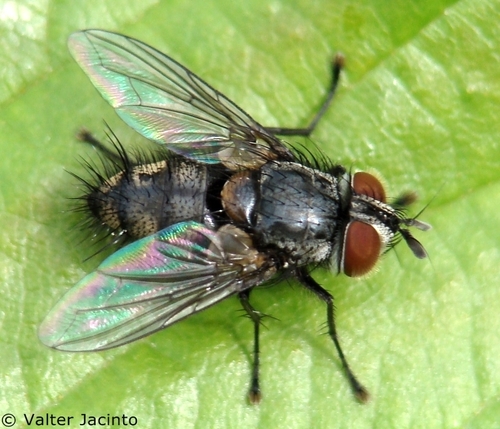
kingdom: Animalia
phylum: Arthropoda
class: Insecta
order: Diptera
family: Tachinidae
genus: Hubneria
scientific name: Hubneria affinis
